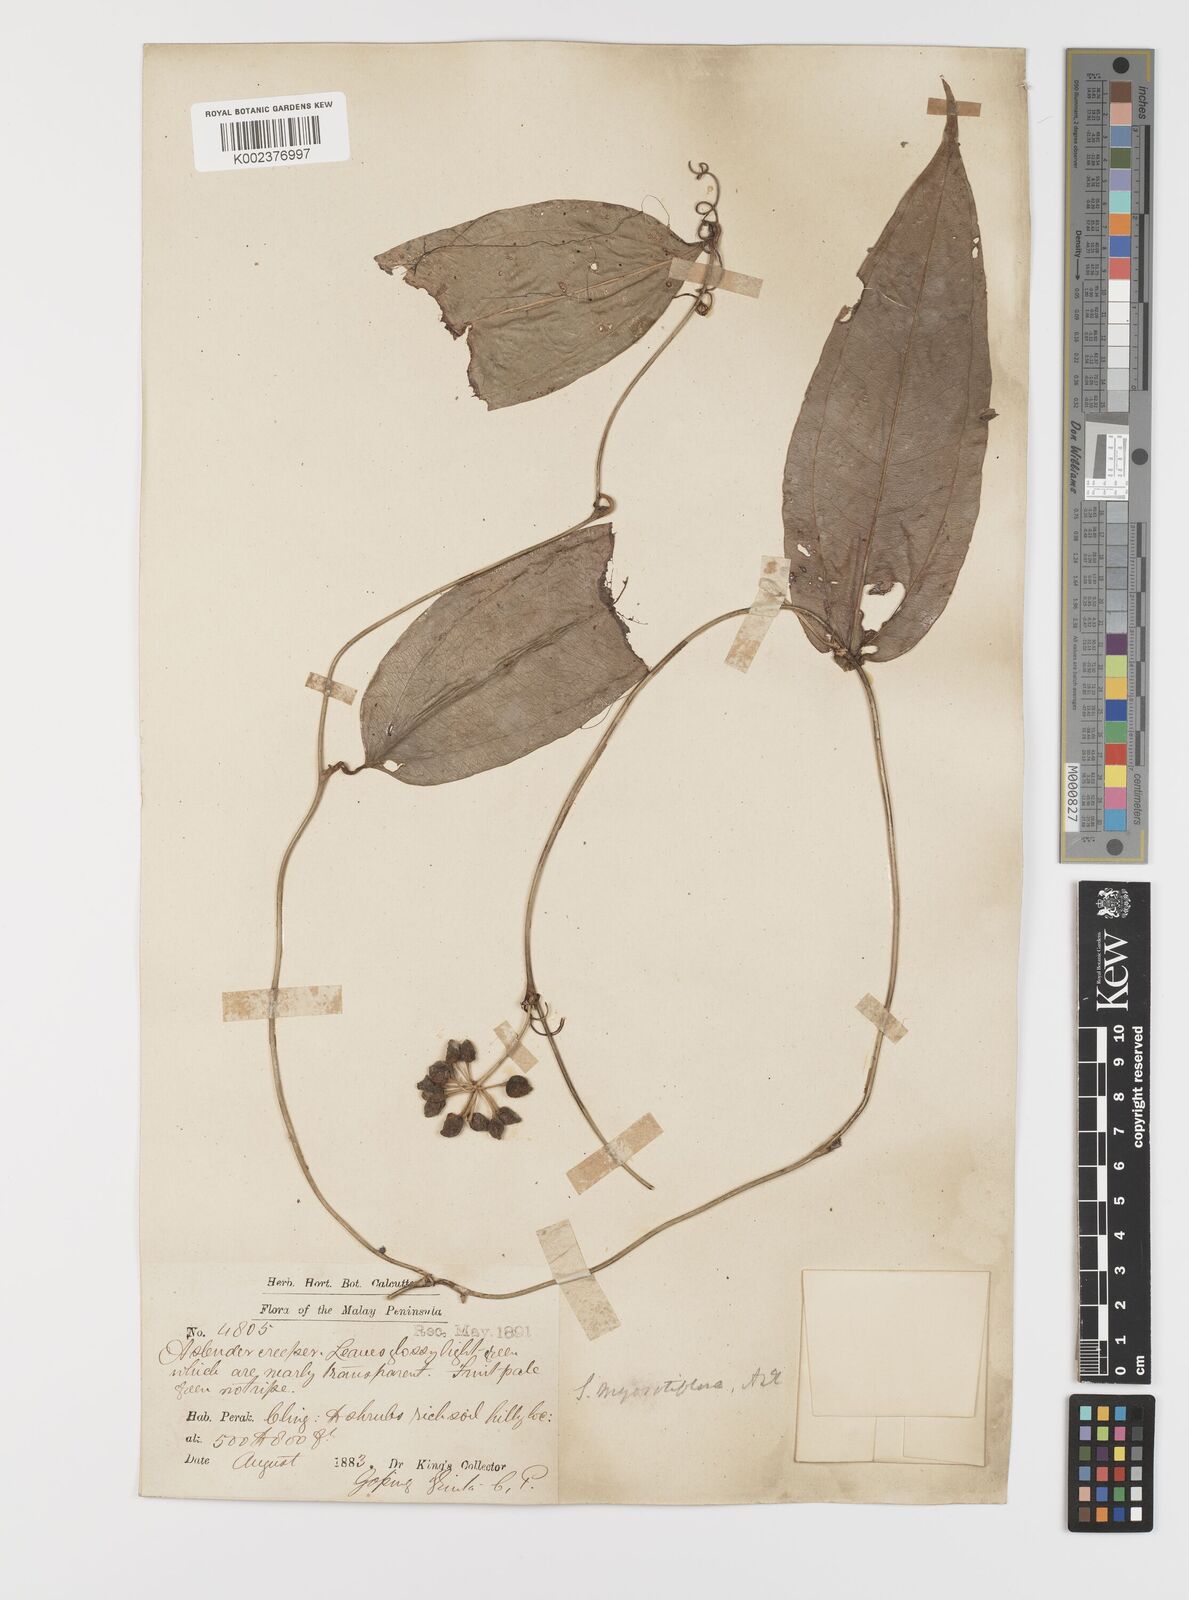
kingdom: Plantae
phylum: Tracheophyta
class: Liliopsida
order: Liliales
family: Smilacaceae
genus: Smilax
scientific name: Smilax myosotiflora
